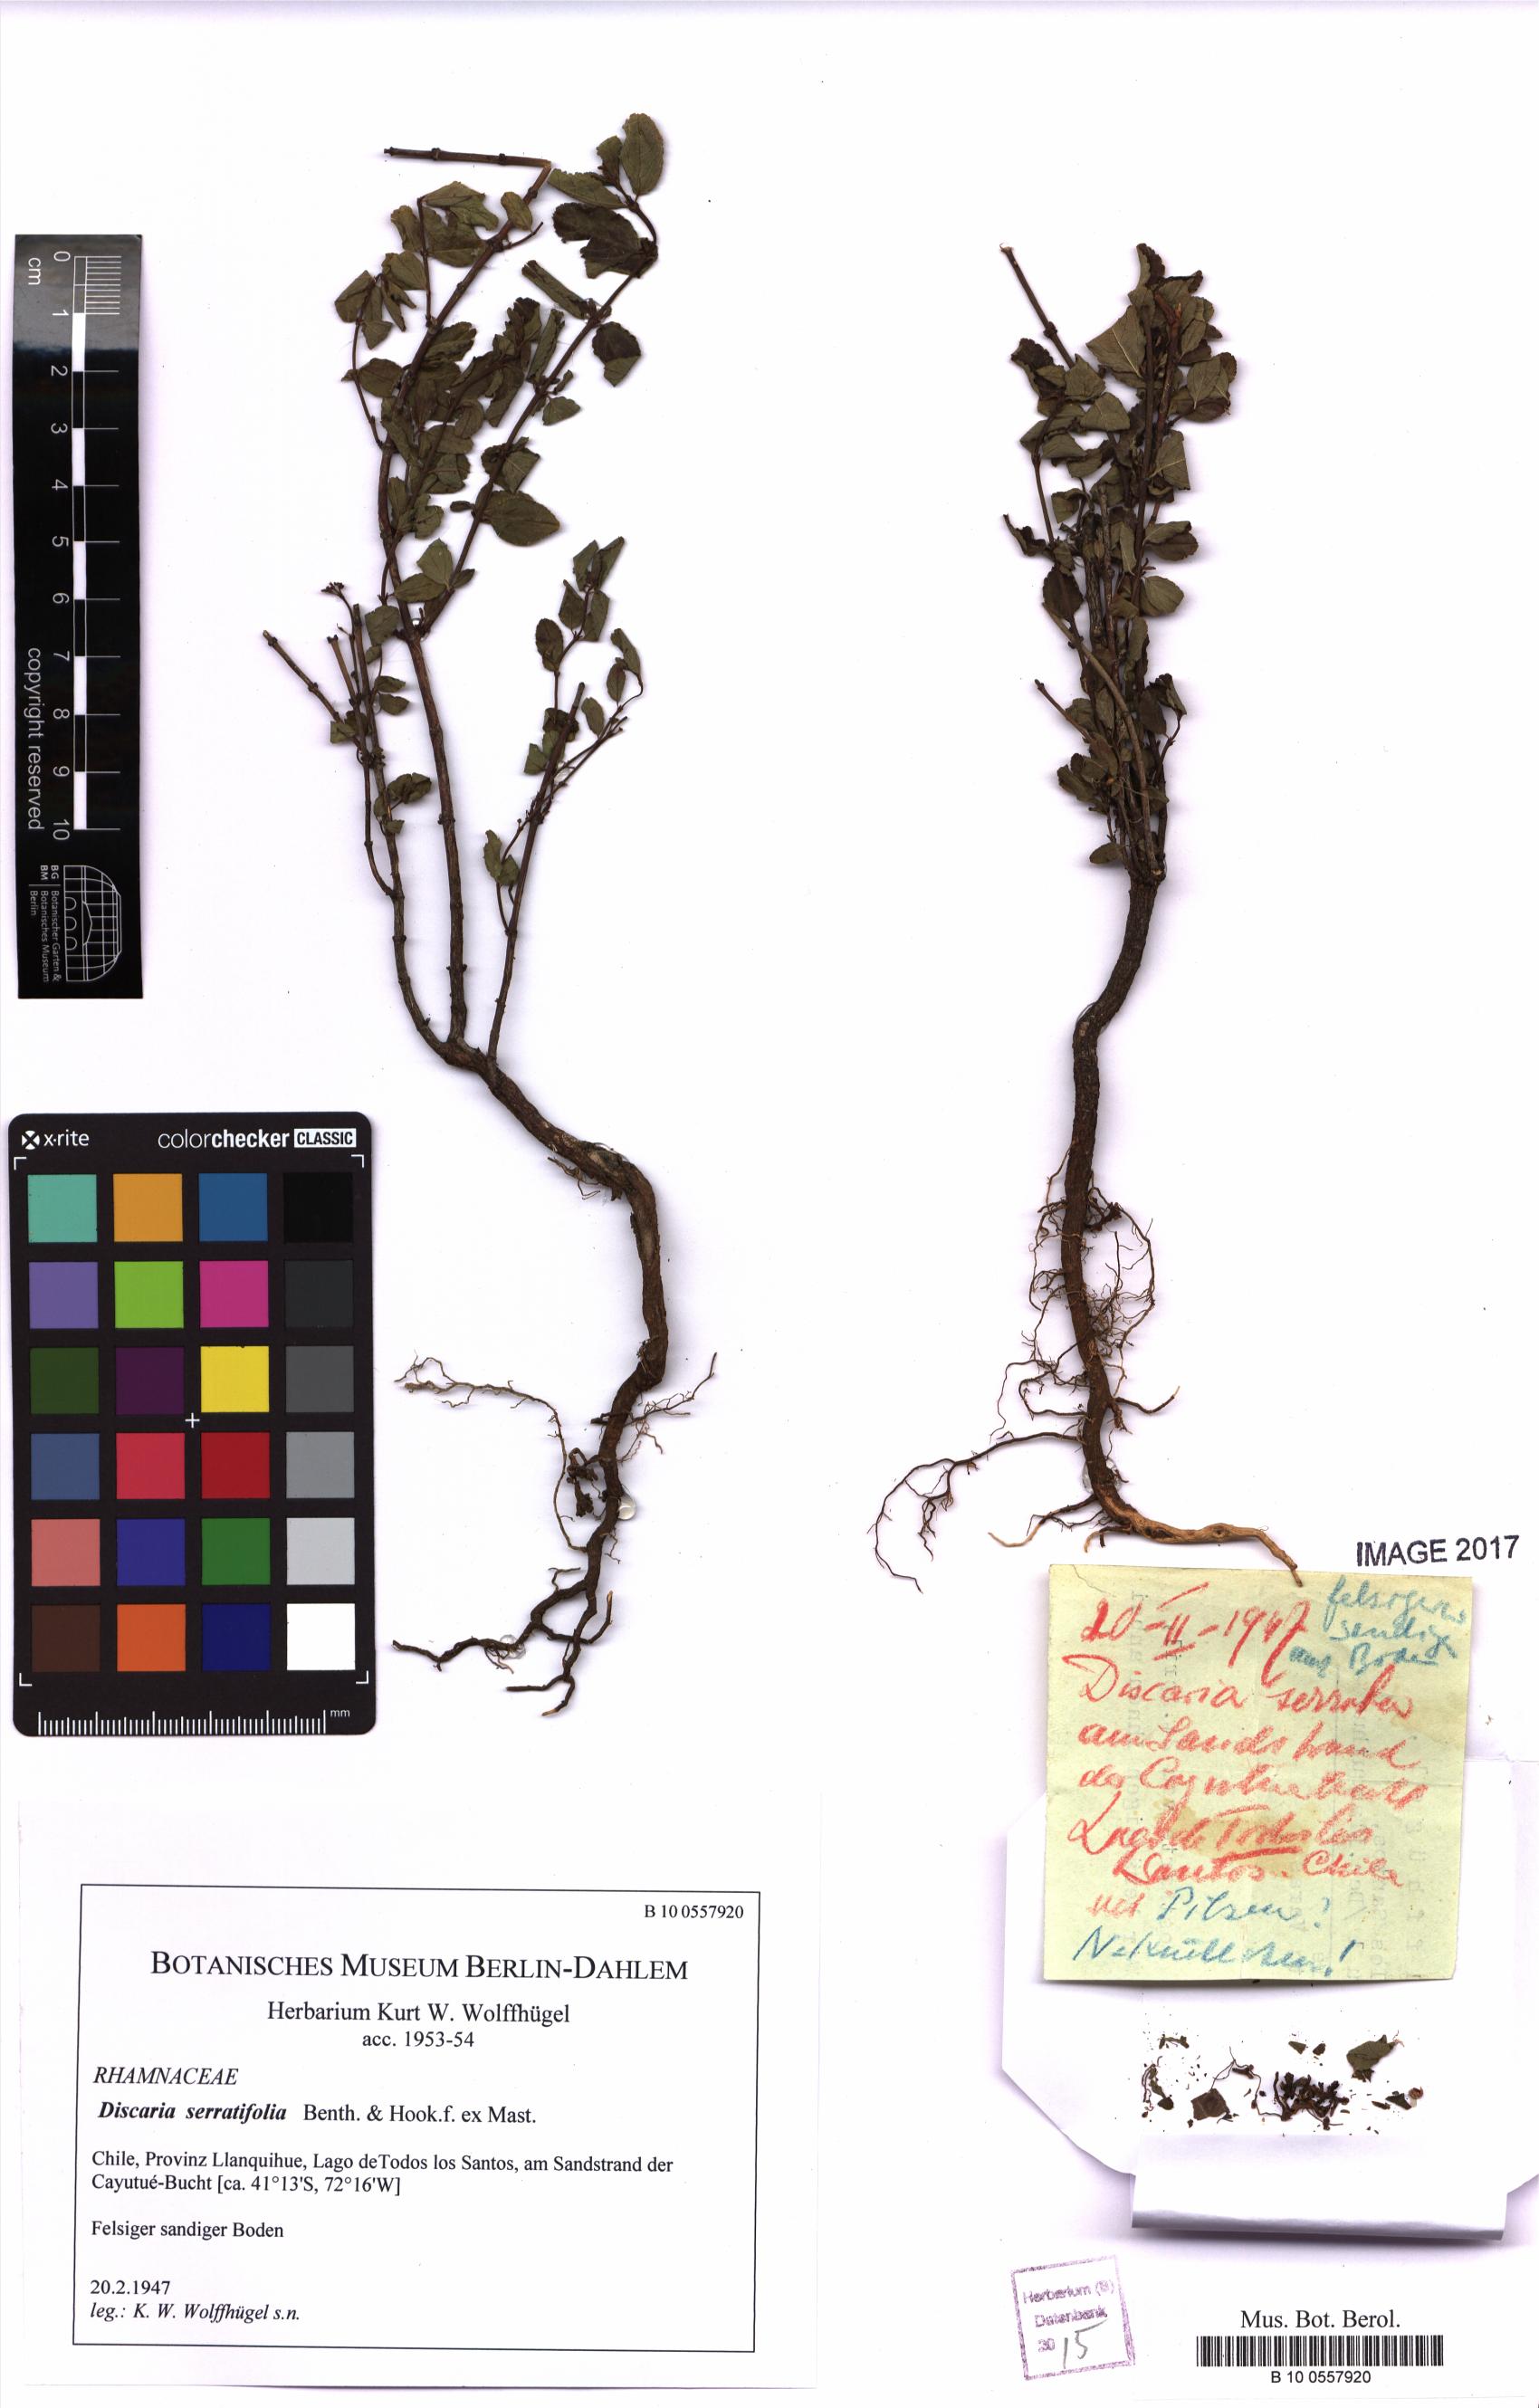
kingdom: Plantae
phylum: Tracheophyta
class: Magnoliopsida
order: Rosales
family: Rhamnaceae
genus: Discaria
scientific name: Discaria serratifolia
